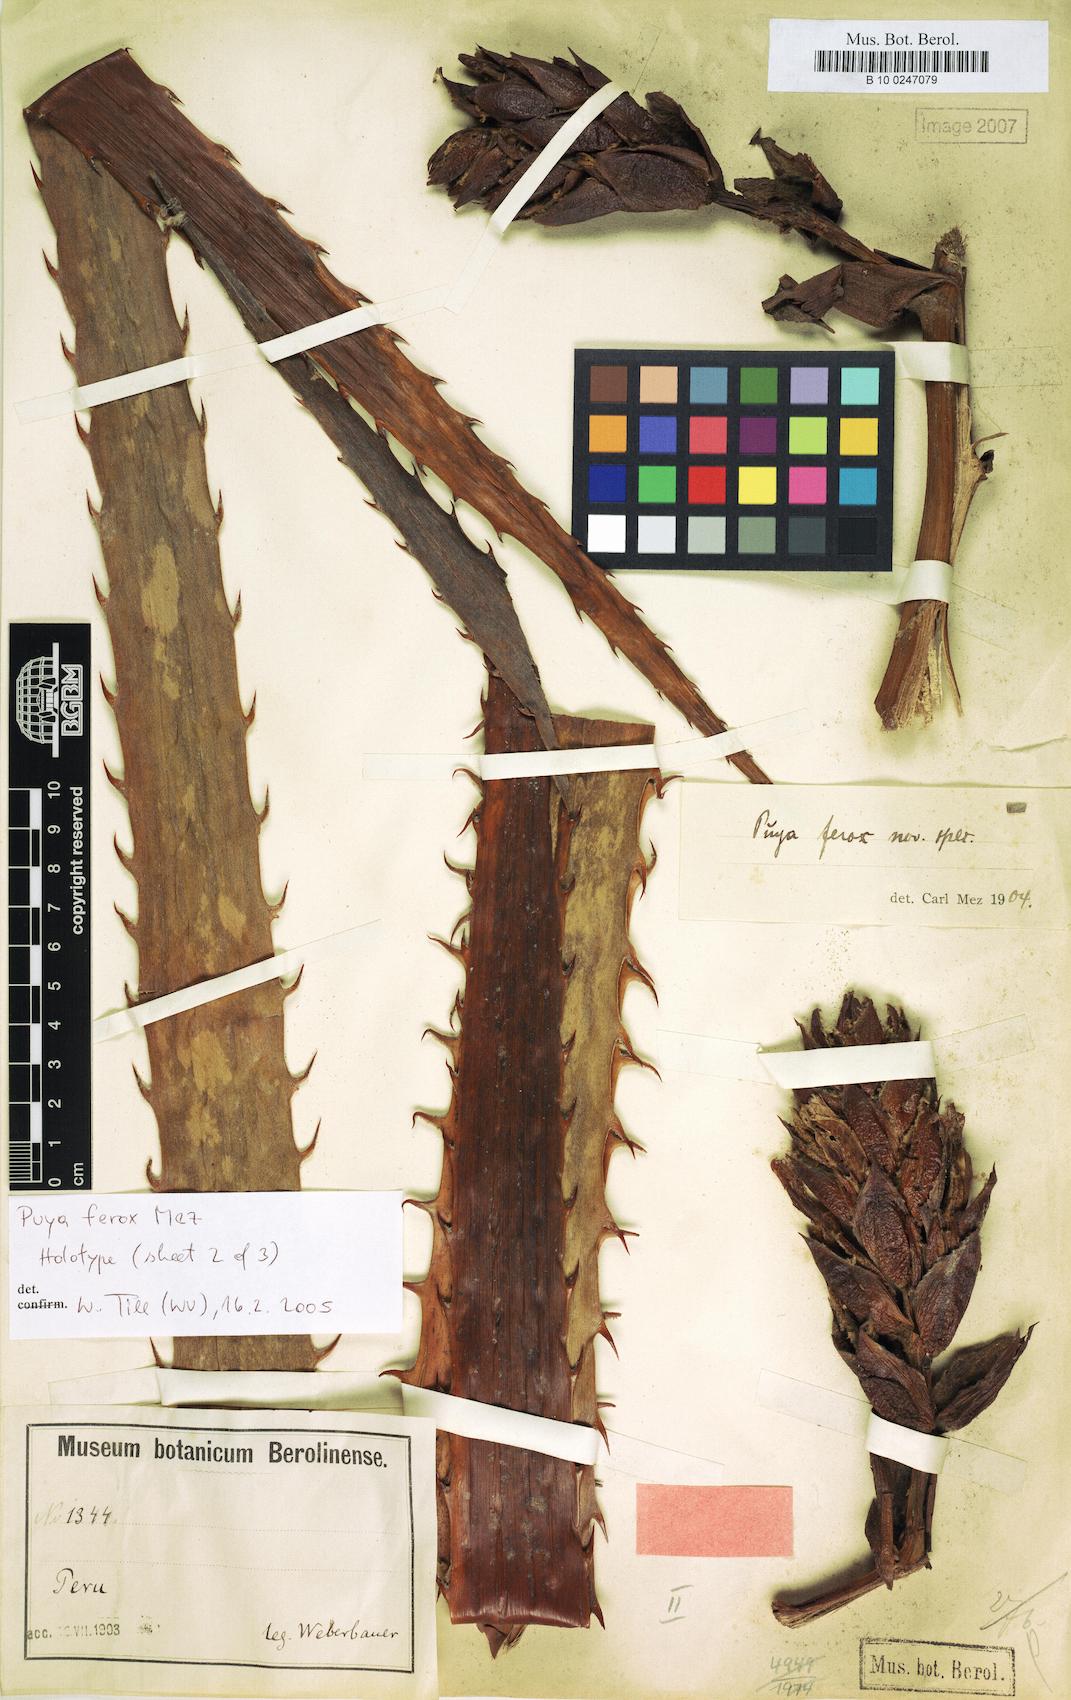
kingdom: Plantae
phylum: Tracheophyta
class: Liliopsida
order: Poales
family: Bromeliaceae
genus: Puya
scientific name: Puya ferox
